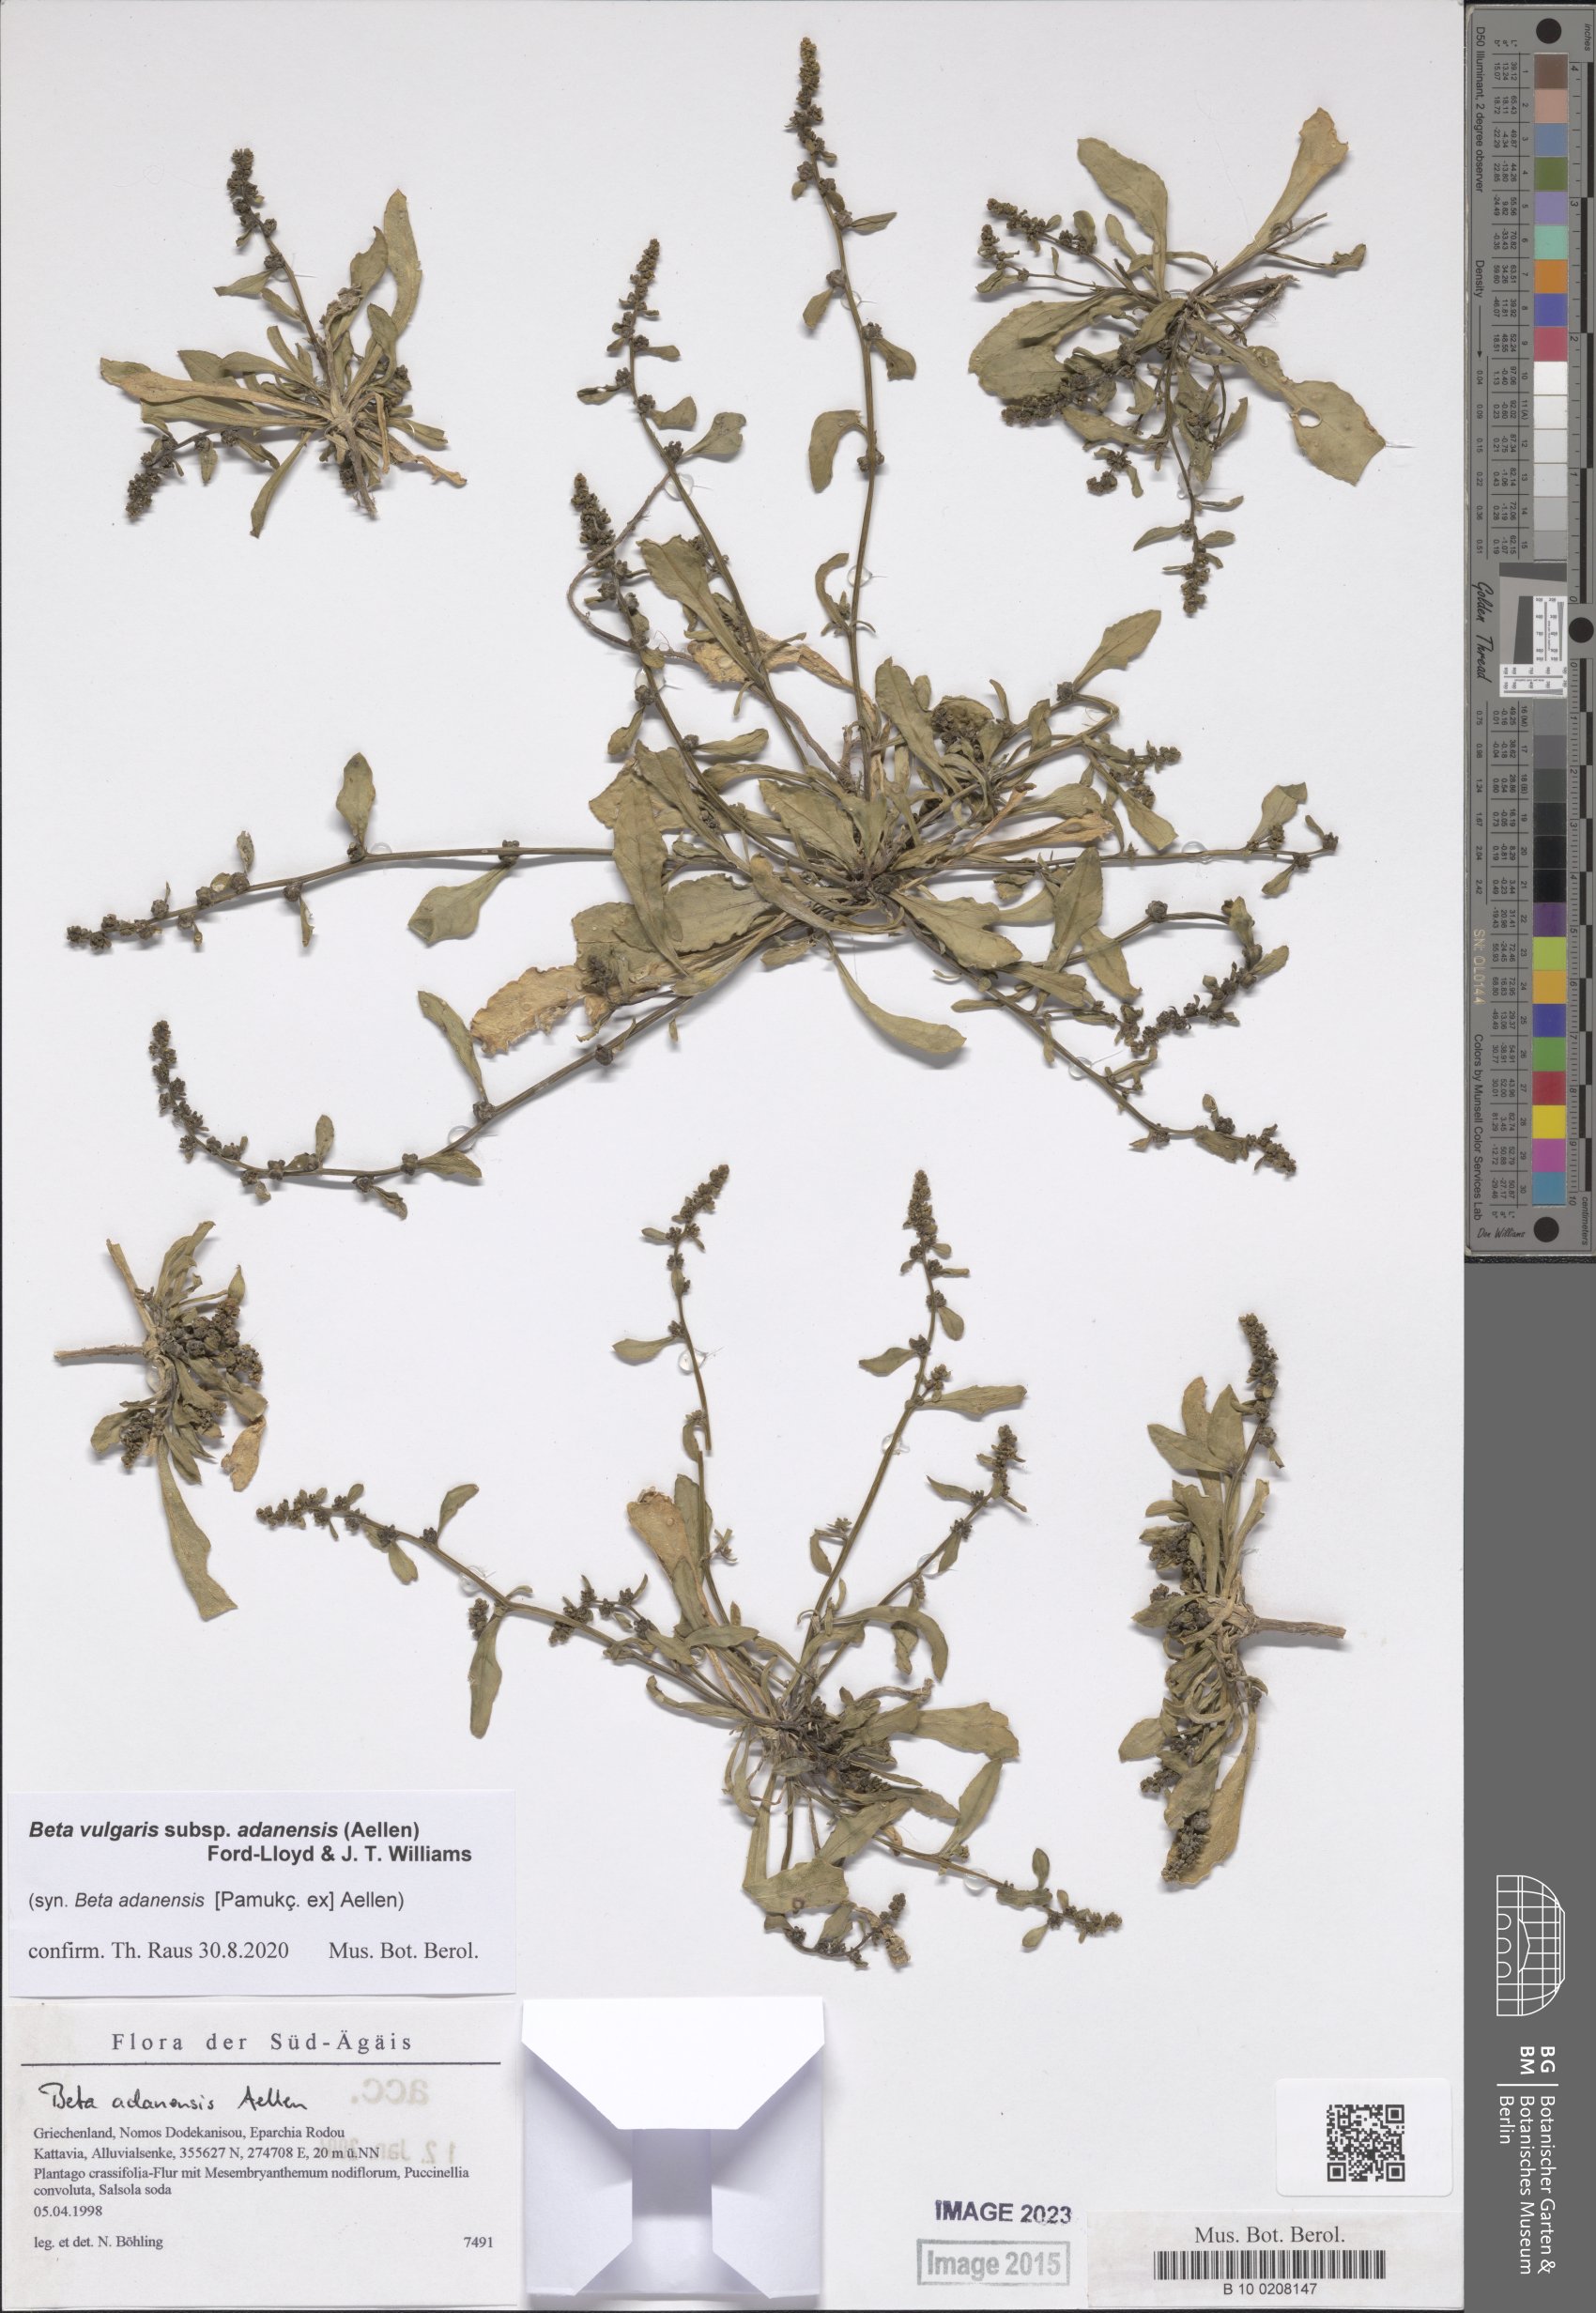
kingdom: Plantae
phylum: Tracheophyta
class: Magnoliopsida
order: Caryophyllales
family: Amaranthaceae
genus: Beta
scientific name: Beta adanensis
